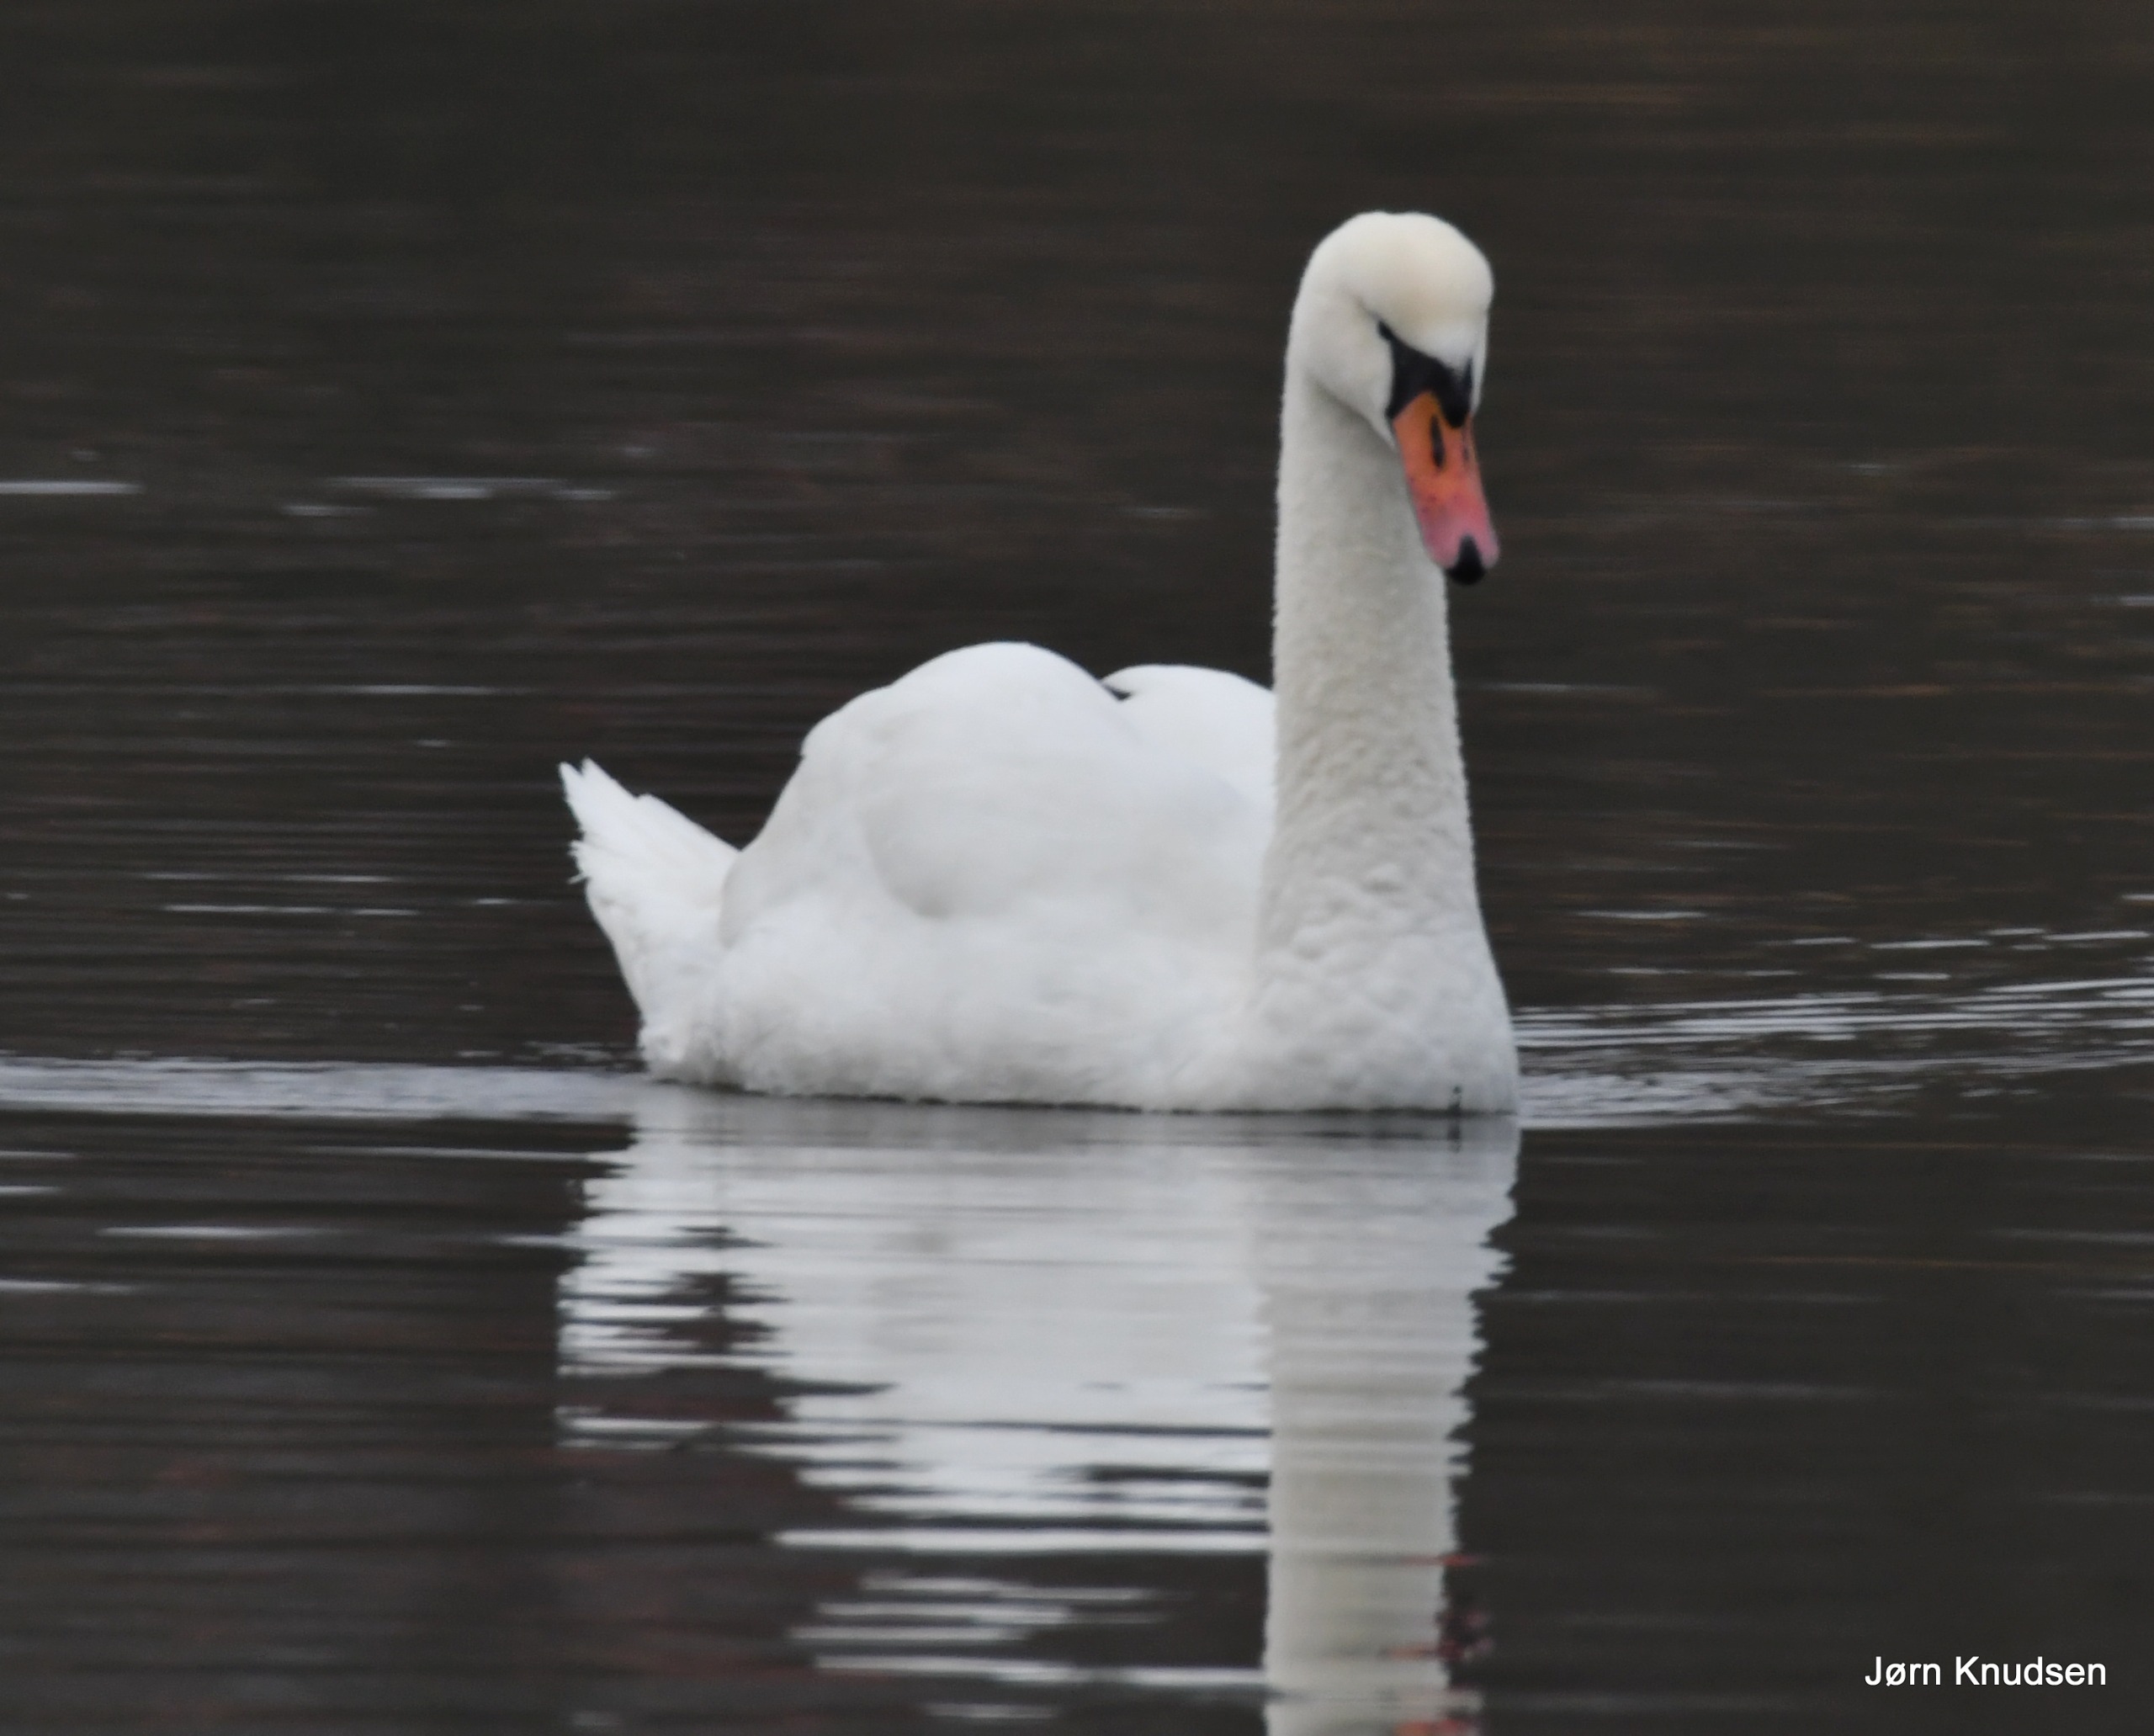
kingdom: Animalia
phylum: Chordata
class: Aves
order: Anseriformes
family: Anatidae
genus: Cygnus
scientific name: Cygnus olor
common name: Knopsvane
